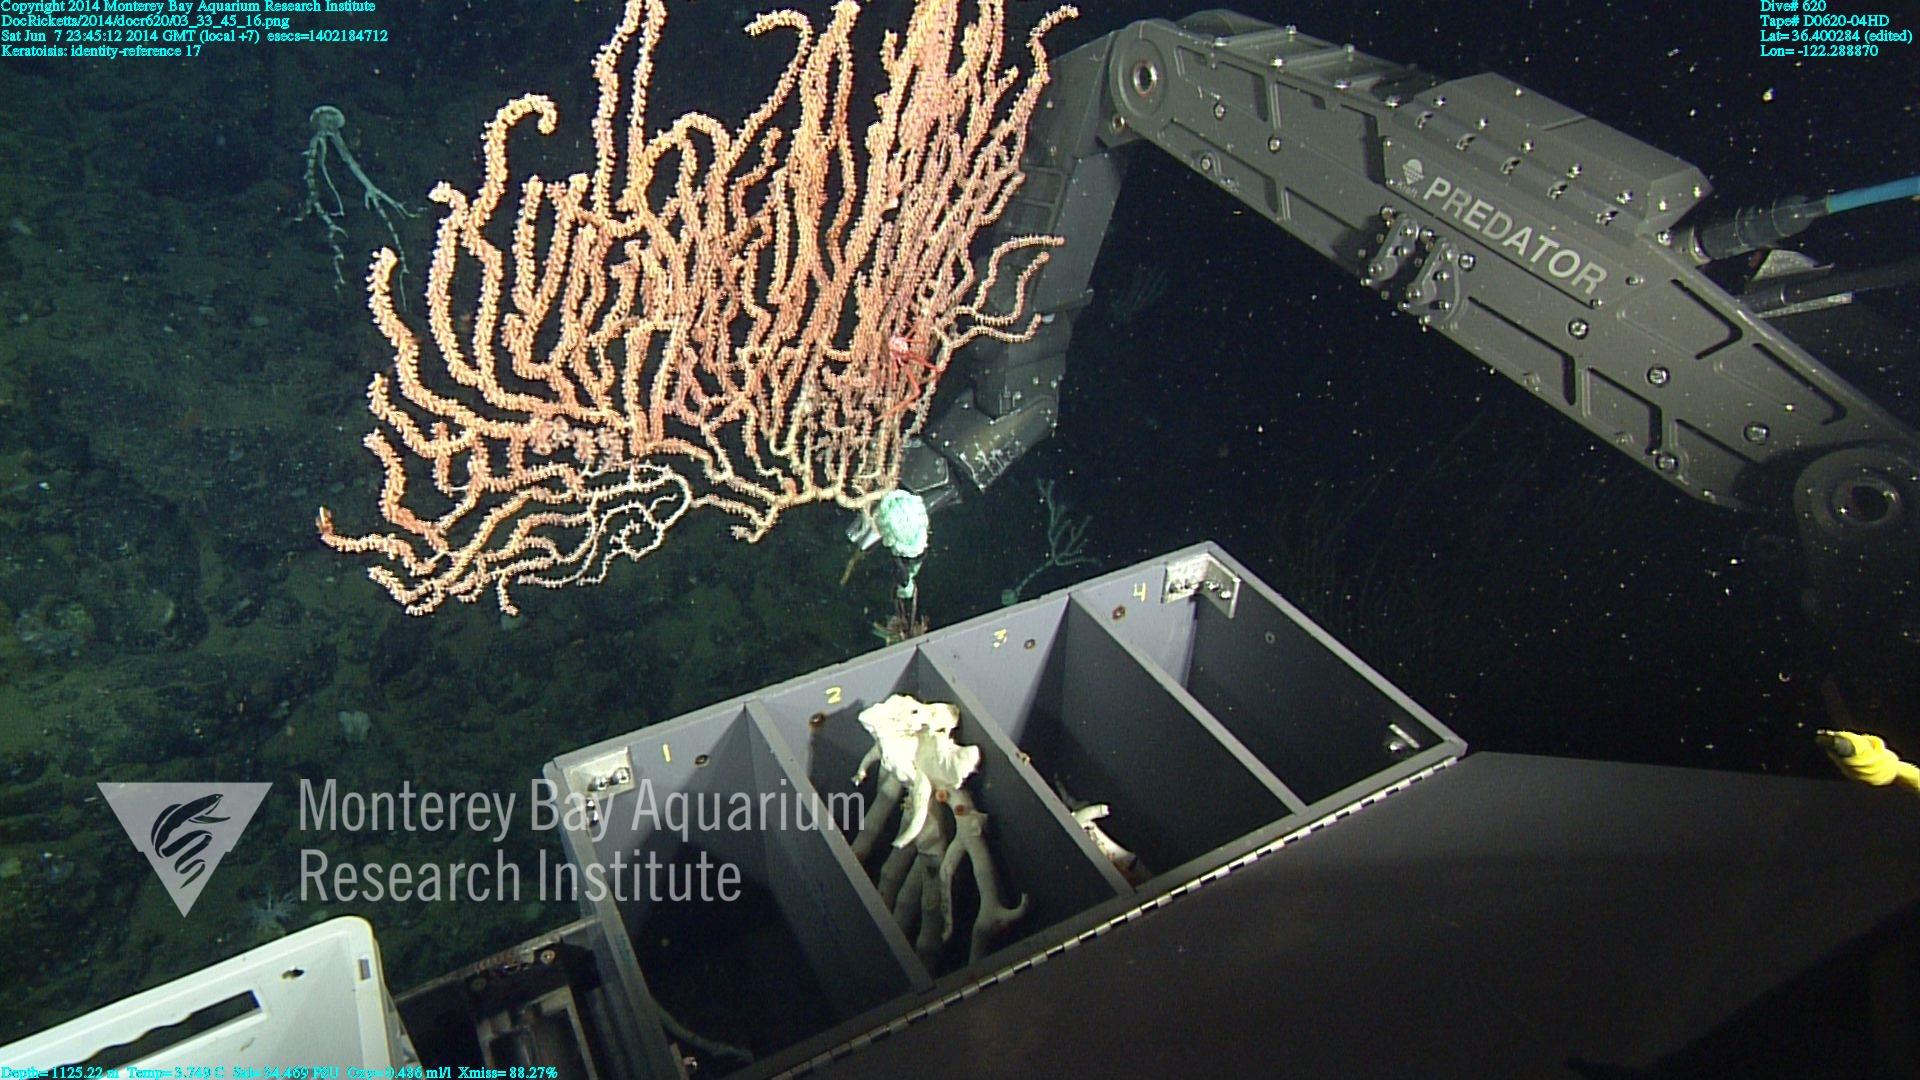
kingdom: Animalia
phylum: Cnidaria
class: Anthozoa
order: Scleralcyonacea
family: Keratoisididae
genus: Keratoisis
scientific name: Keratoisis
